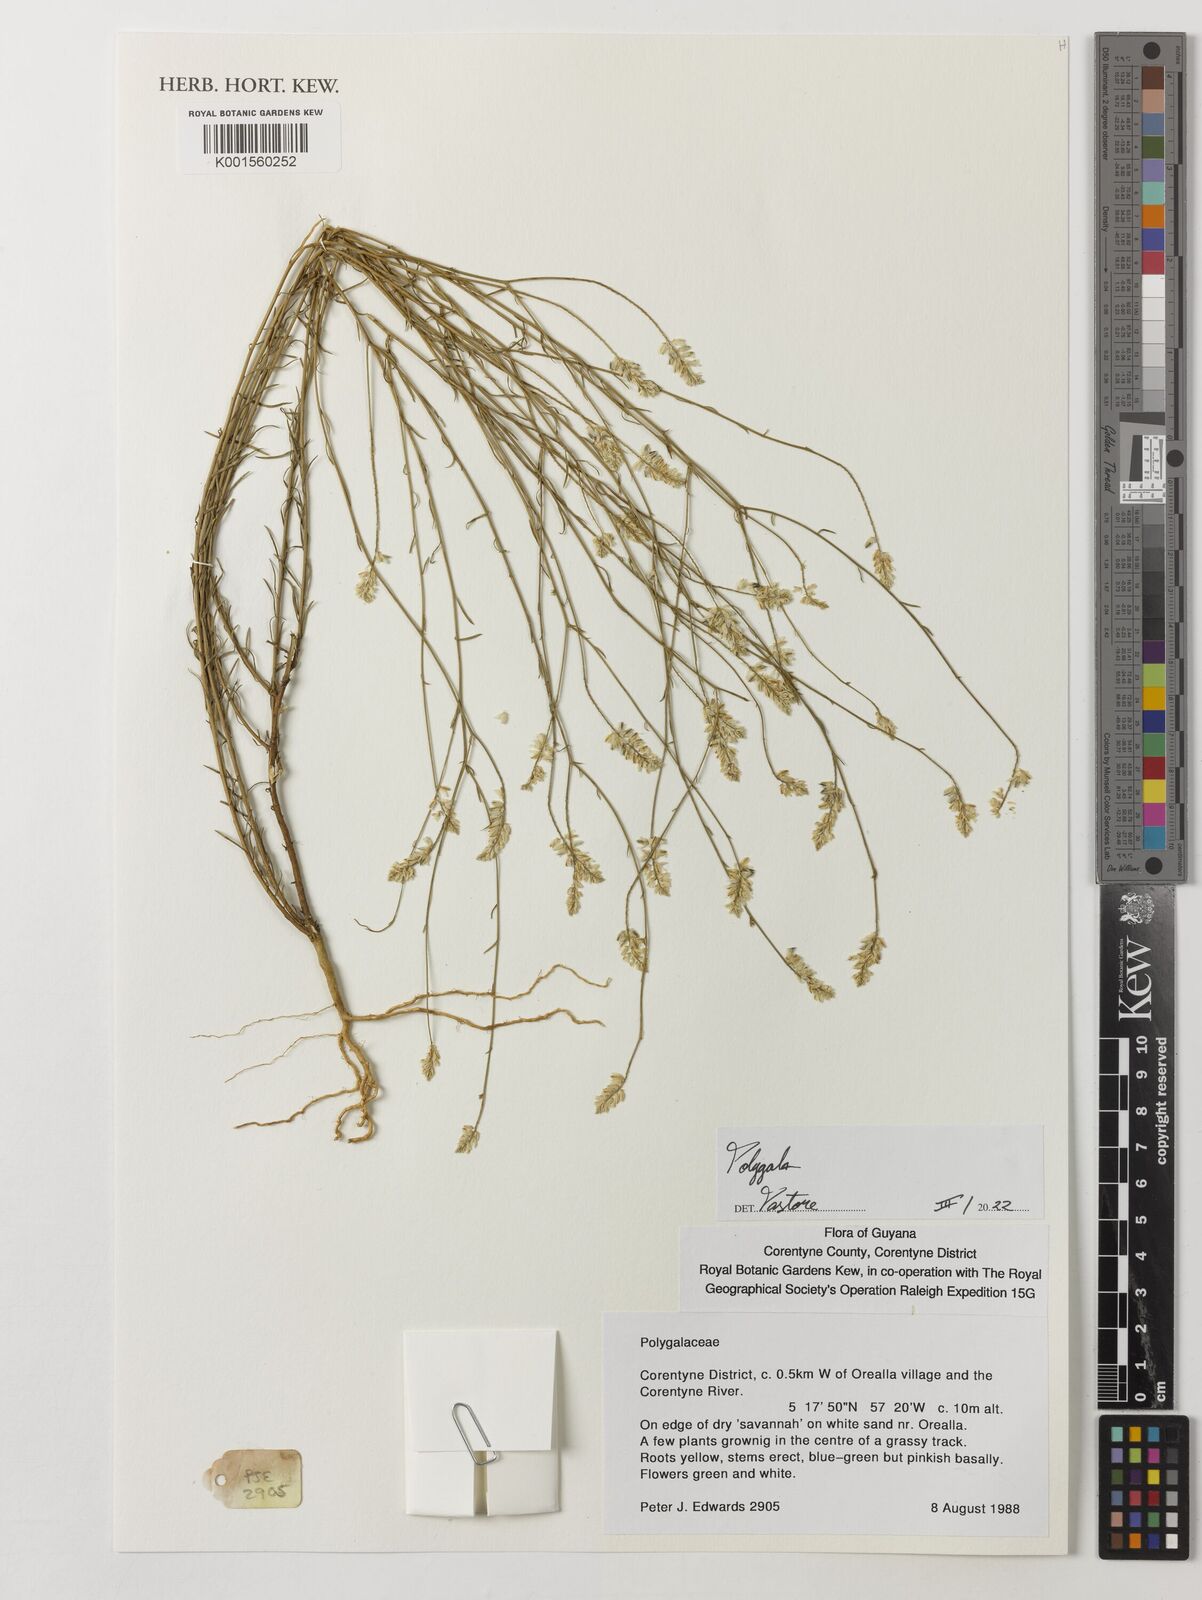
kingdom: Plantae
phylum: Tracheophyta
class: Magnoliopsida
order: Fabales
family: Polygalaceae
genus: Polygala
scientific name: Polygala
